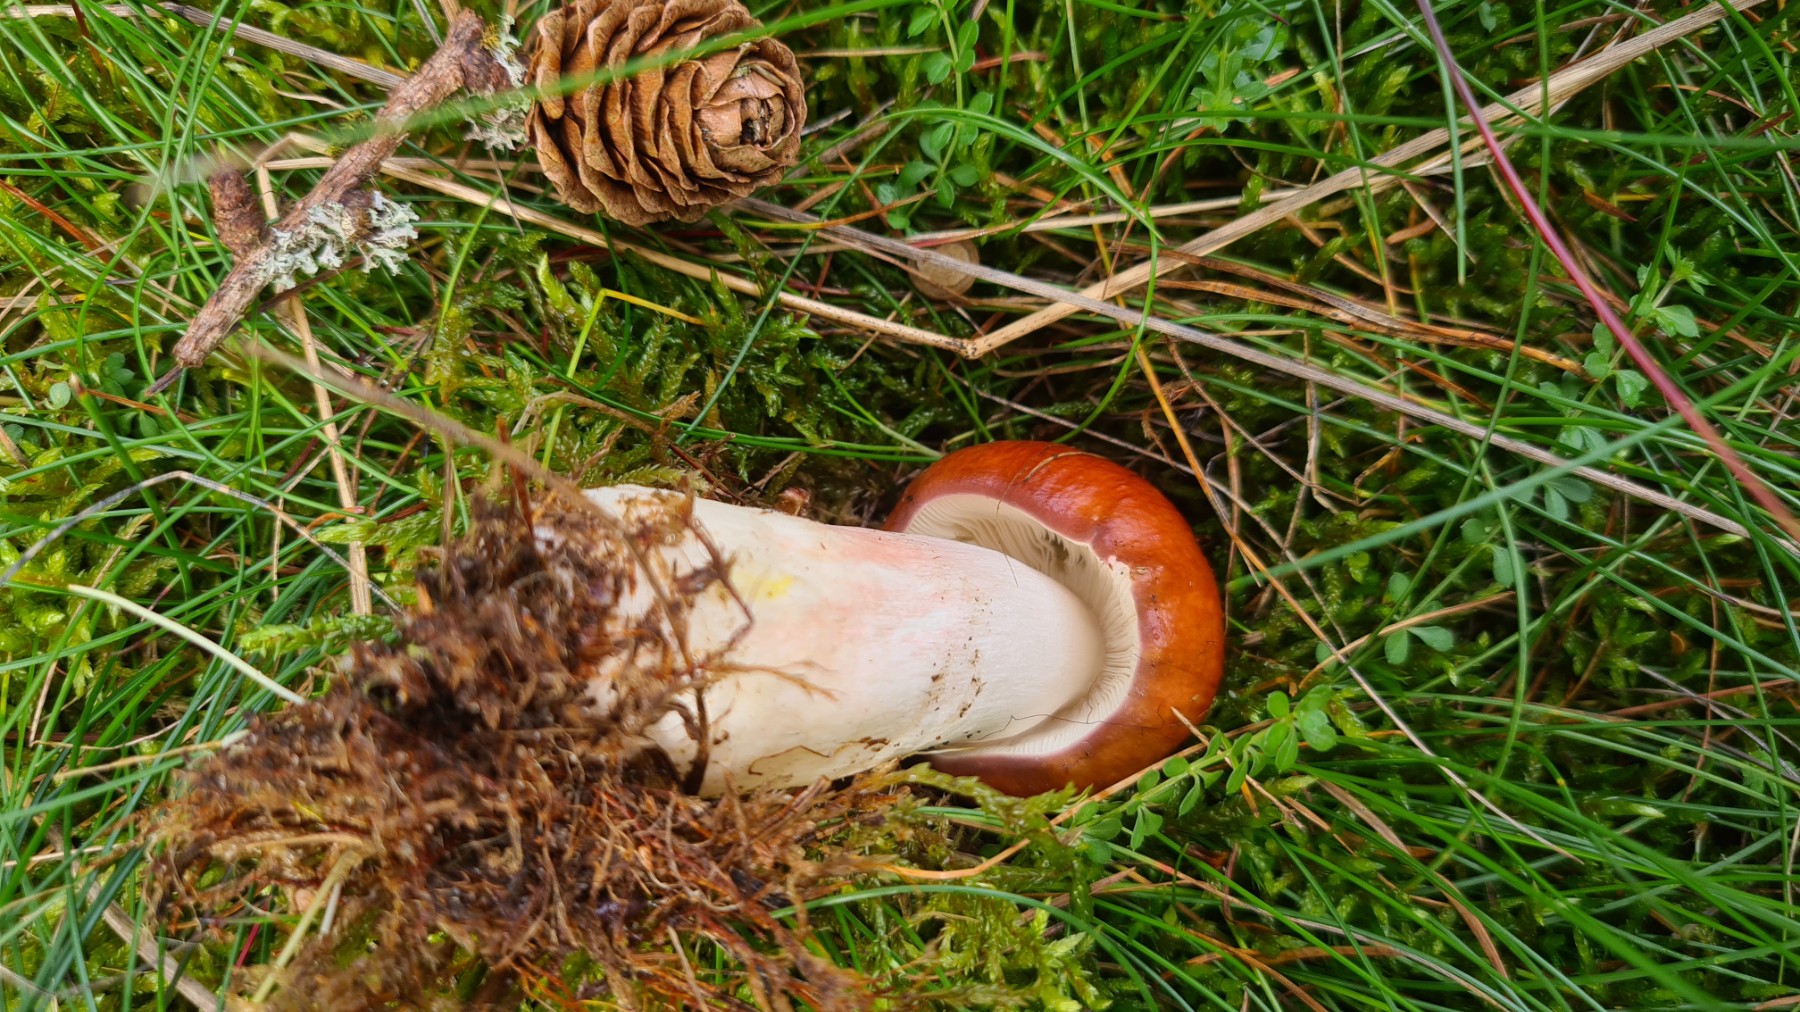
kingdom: Fungi
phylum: Basidiomycota
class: Agaricomycetes
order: Russulales
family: Russulaceae
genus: Russula
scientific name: Russula paludosa
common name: prægtig skørhat
